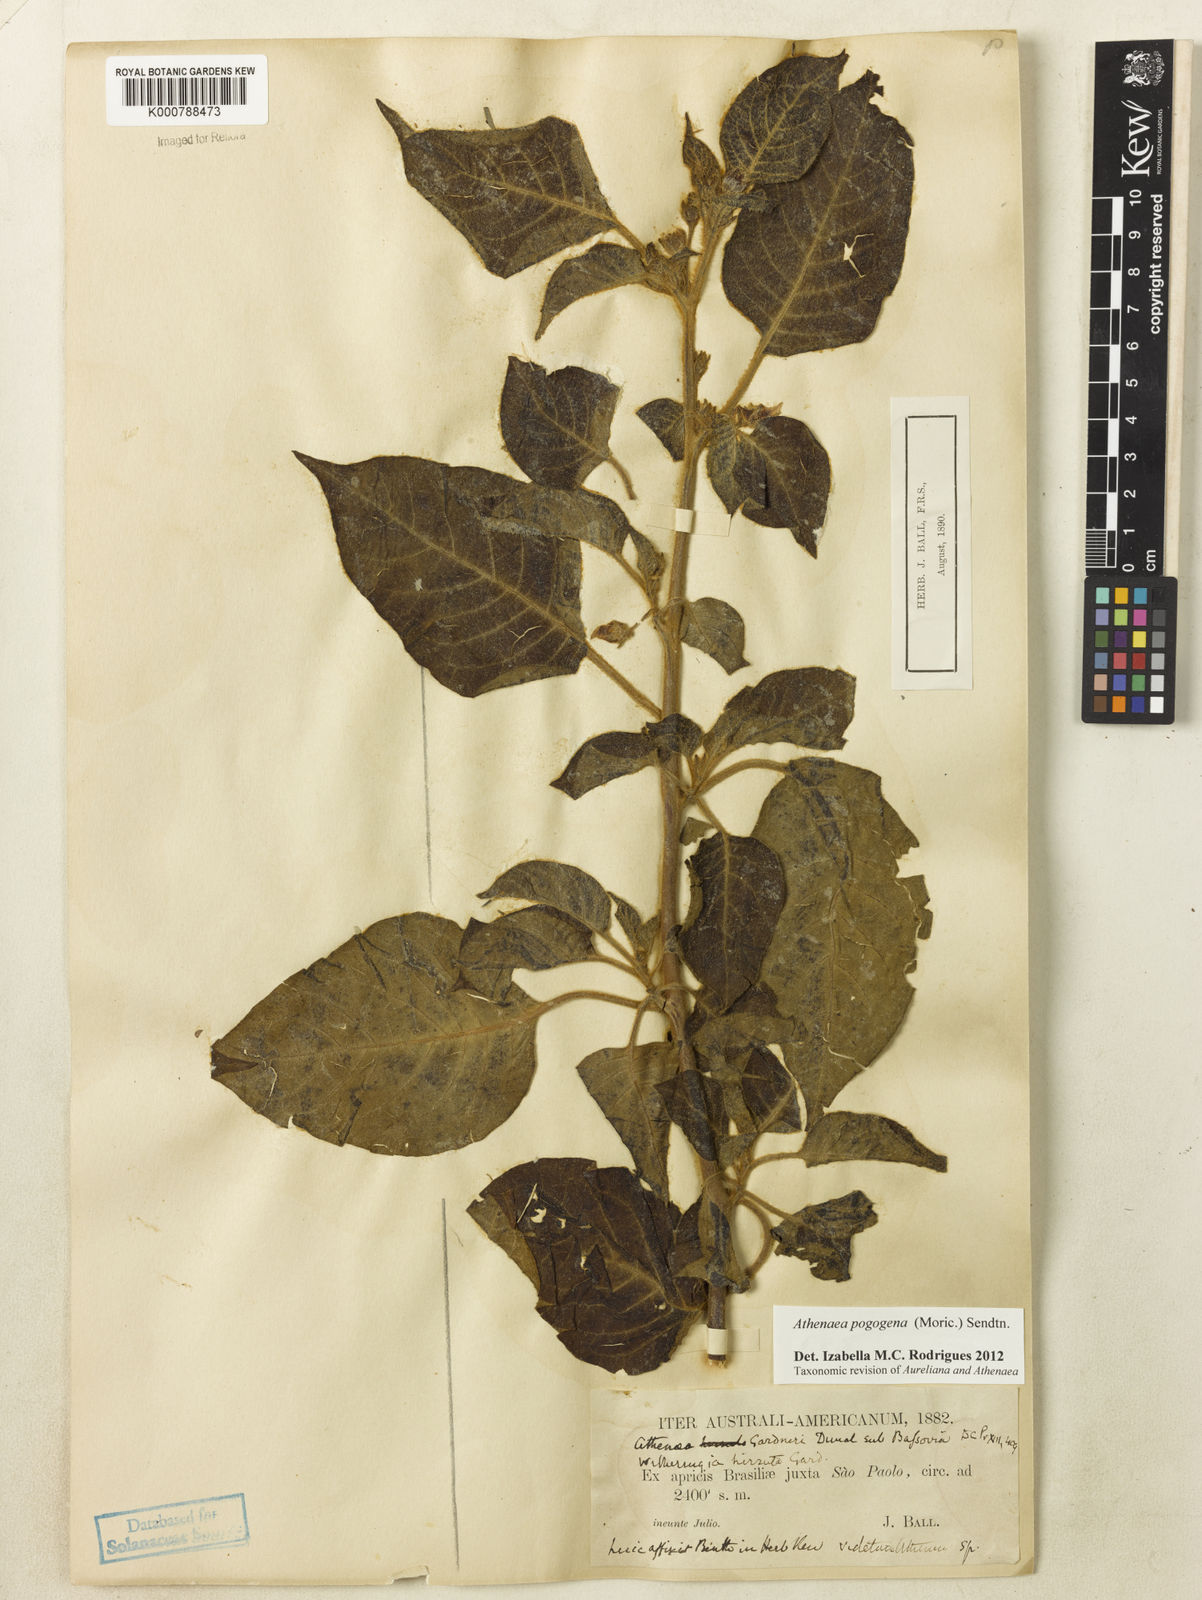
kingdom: Plantae
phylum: Tracheophyta
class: Magnoliopsida
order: Solanales
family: Solanaceae
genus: Athenaea
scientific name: Athenaea pogogena
